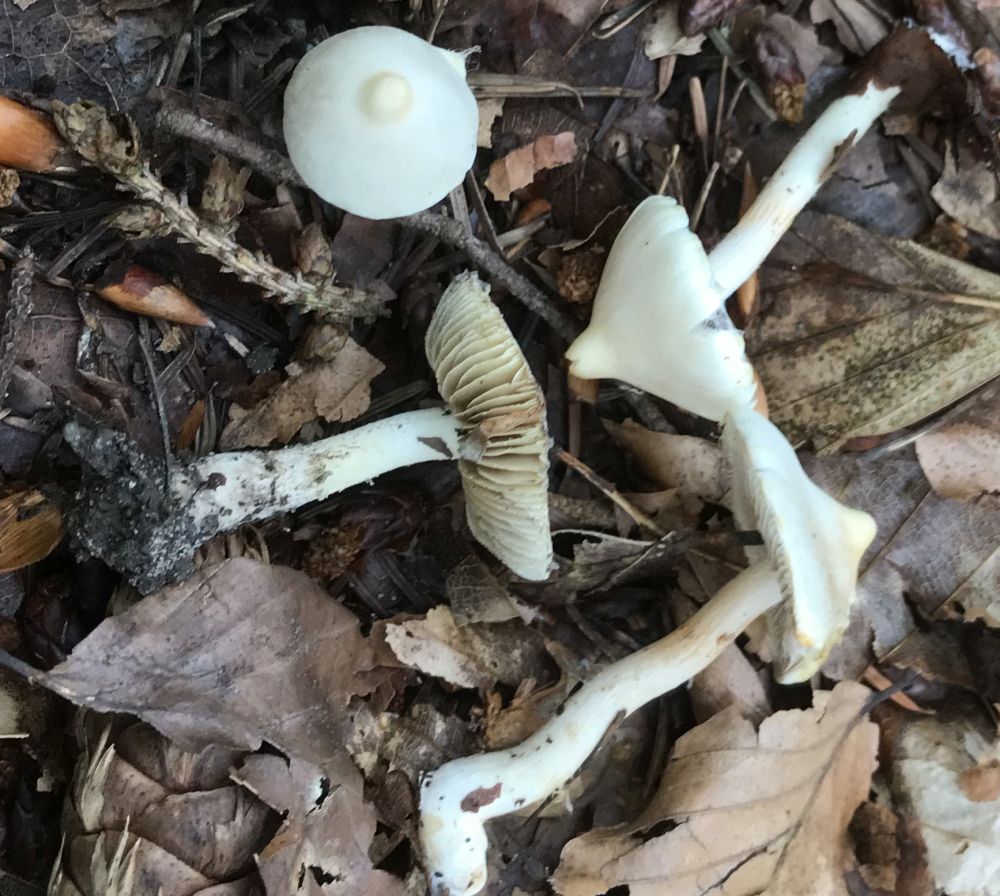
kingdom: Fungi
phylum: Basidiomycota
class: Agaricomycetes
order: Agaricales
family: Inocybaceae
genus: Inocybe
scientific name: Inocybe
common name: almindelig trævlhat
